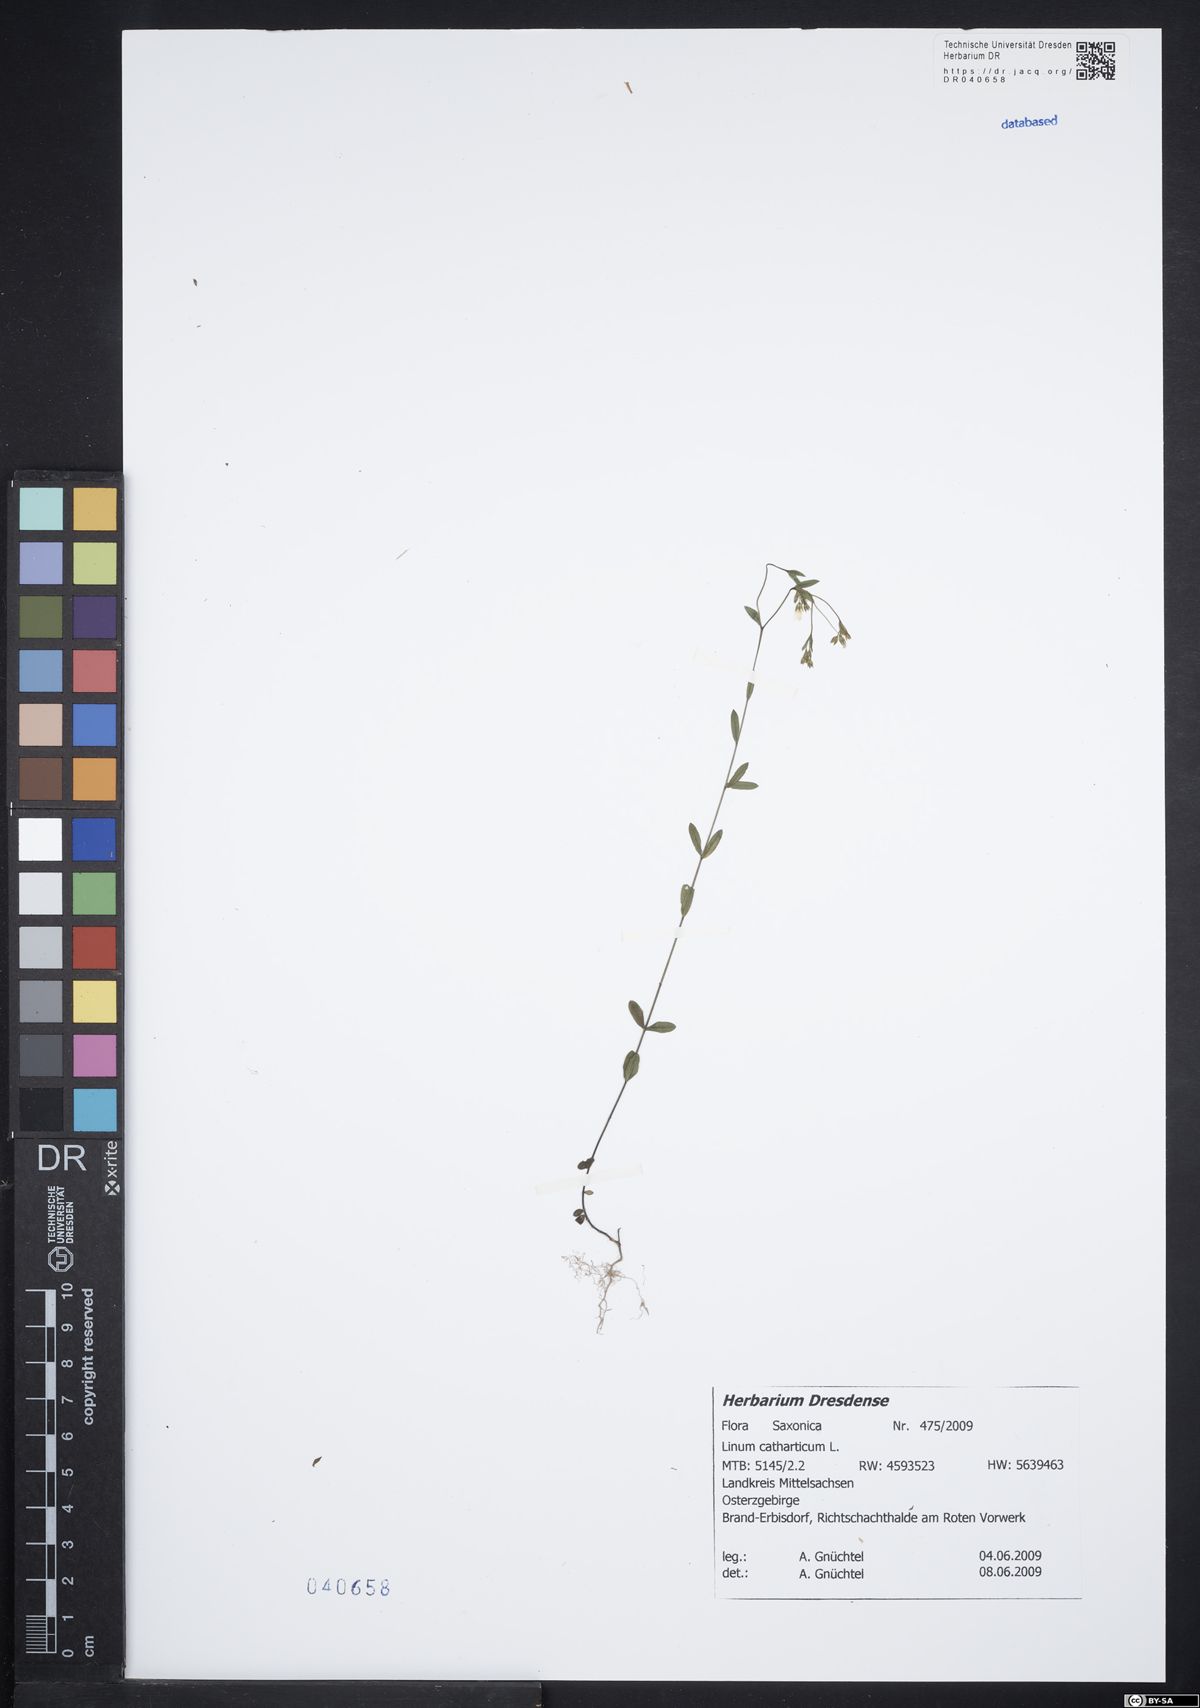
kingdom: Plantae
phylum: Tracheophyta
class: Magnoliopsida
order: Malpighiales
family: Linaceae
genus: Linum
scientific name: Linum catharticum
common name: Fairy flax
